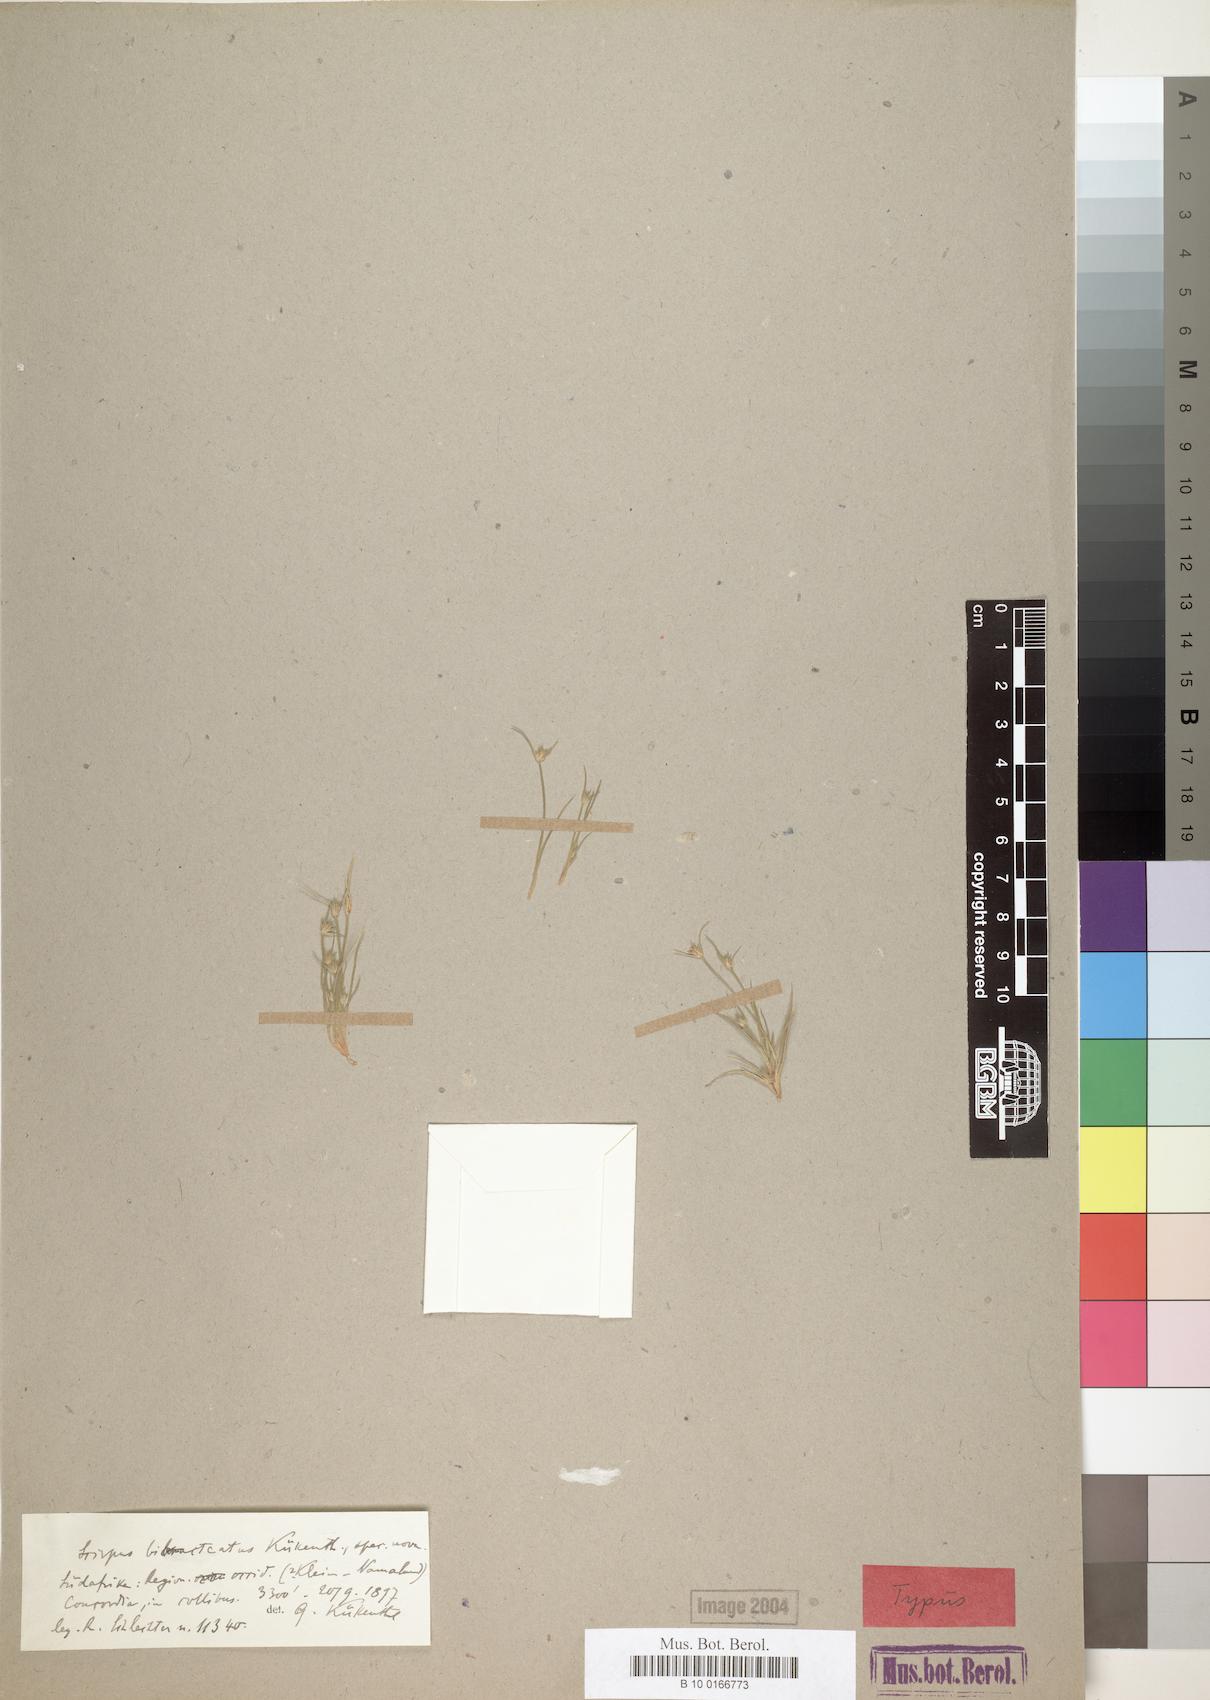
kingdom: Plantae
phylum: Tracheophyta
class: Liliopsida
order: Poales
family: Cyperaceae
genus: Scirpus
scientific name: Scirpus bibracteatus
